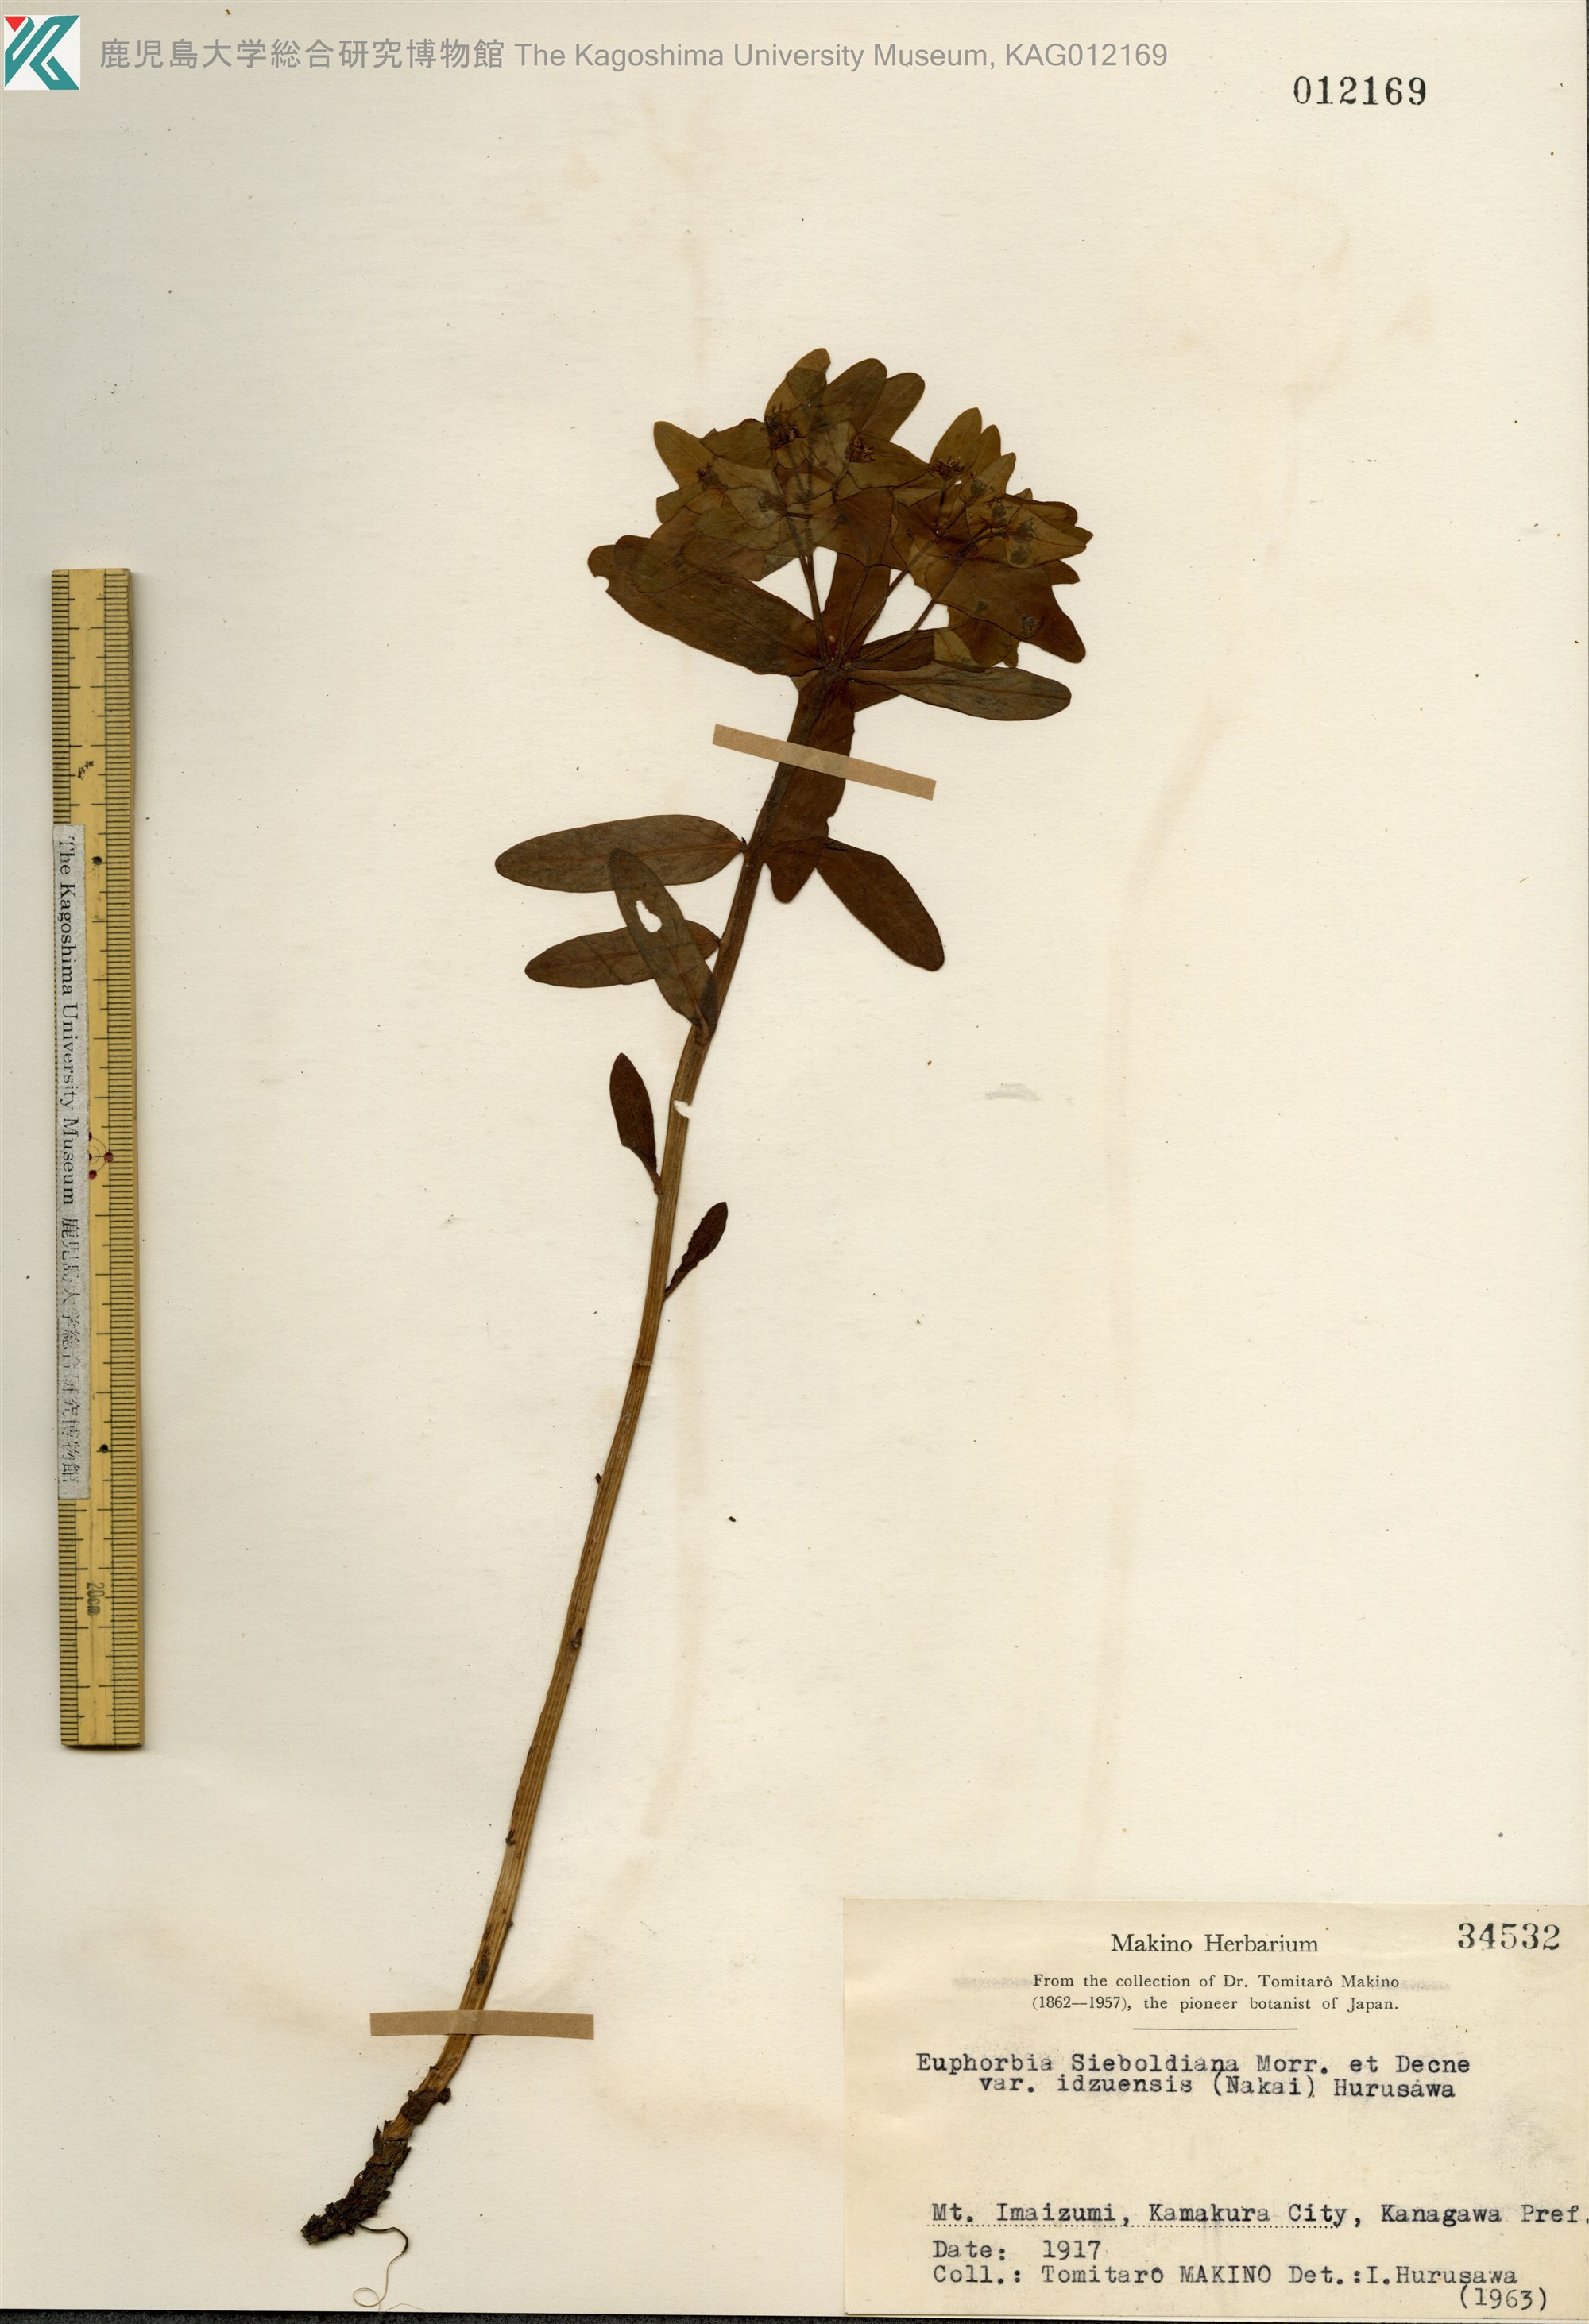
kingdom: Plantae
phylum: Tracheophyta
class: Magnoliopsida
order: Malpighiales
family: Euphorbiaceae
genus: Euphorbia
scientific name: Euphorbia sieboldiana
